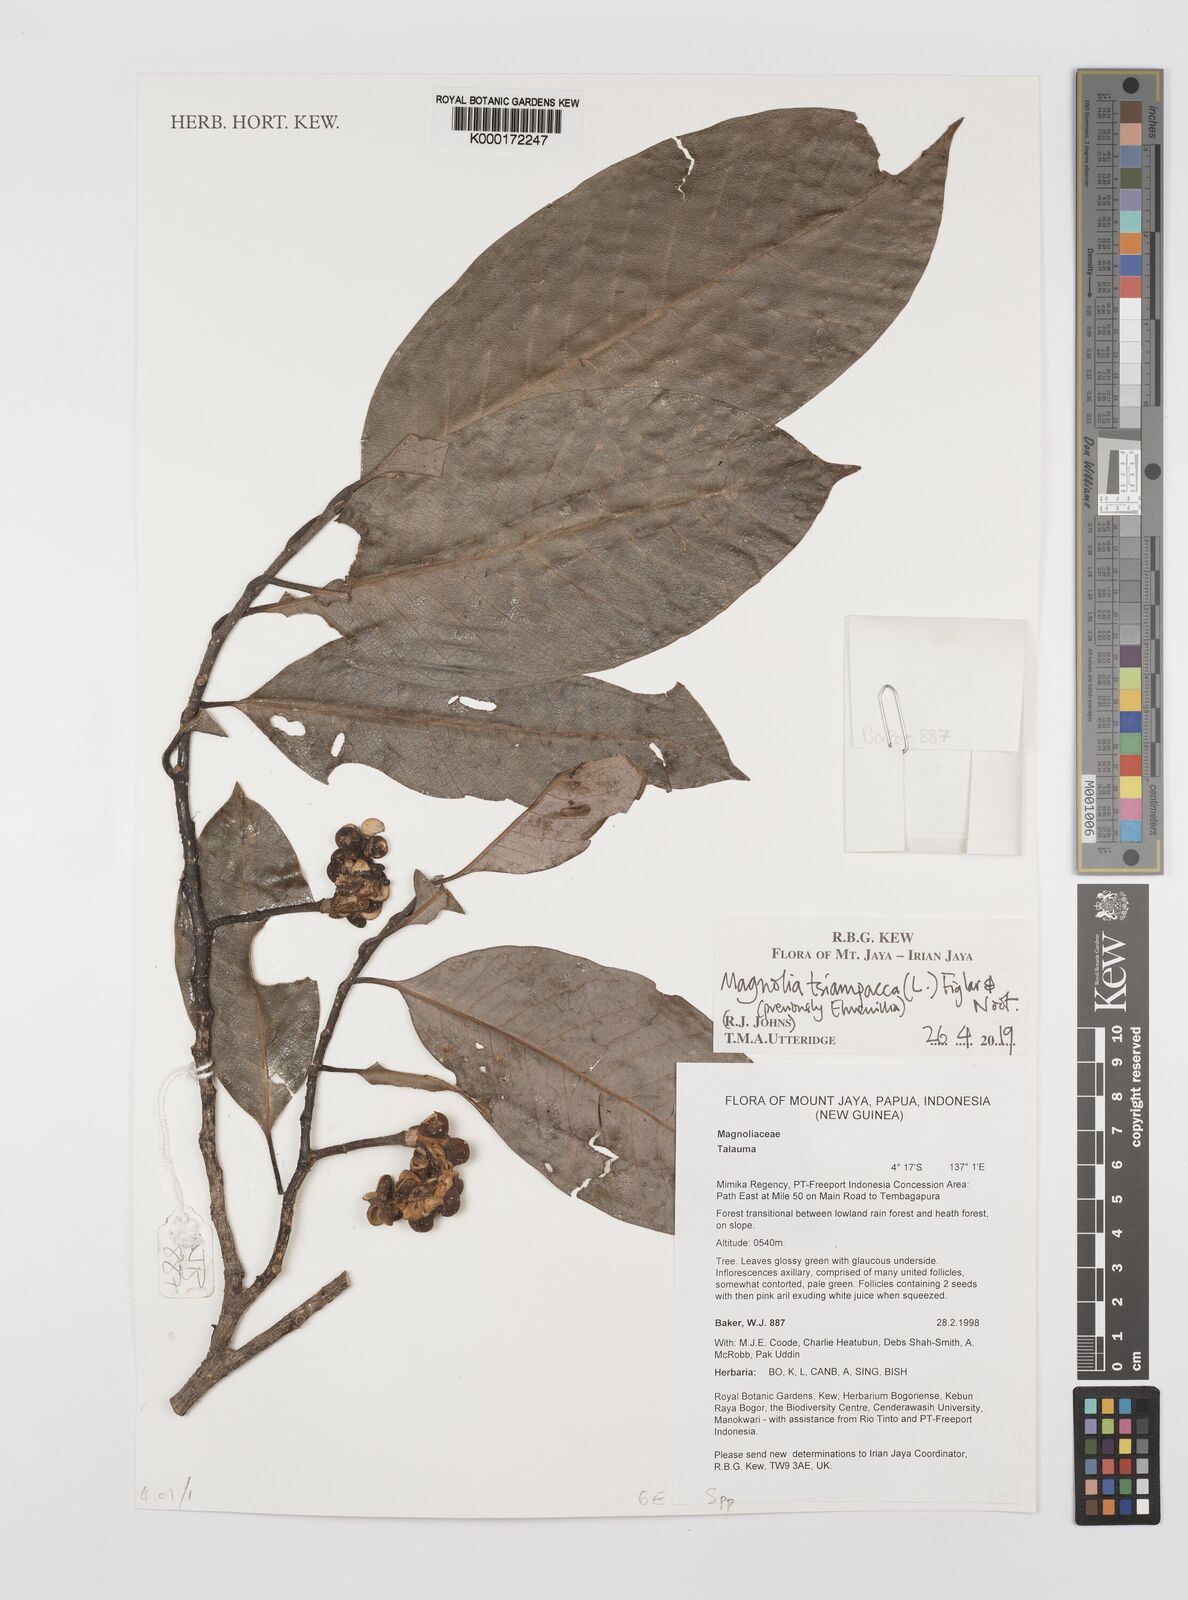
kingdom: Plantae
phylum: Tracheophyta
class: Magnoliopsida
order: Magnoliales
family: Magnoliaceae
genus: Magnolia
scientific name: Magnolia tsiampacca
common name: Wau-beech
